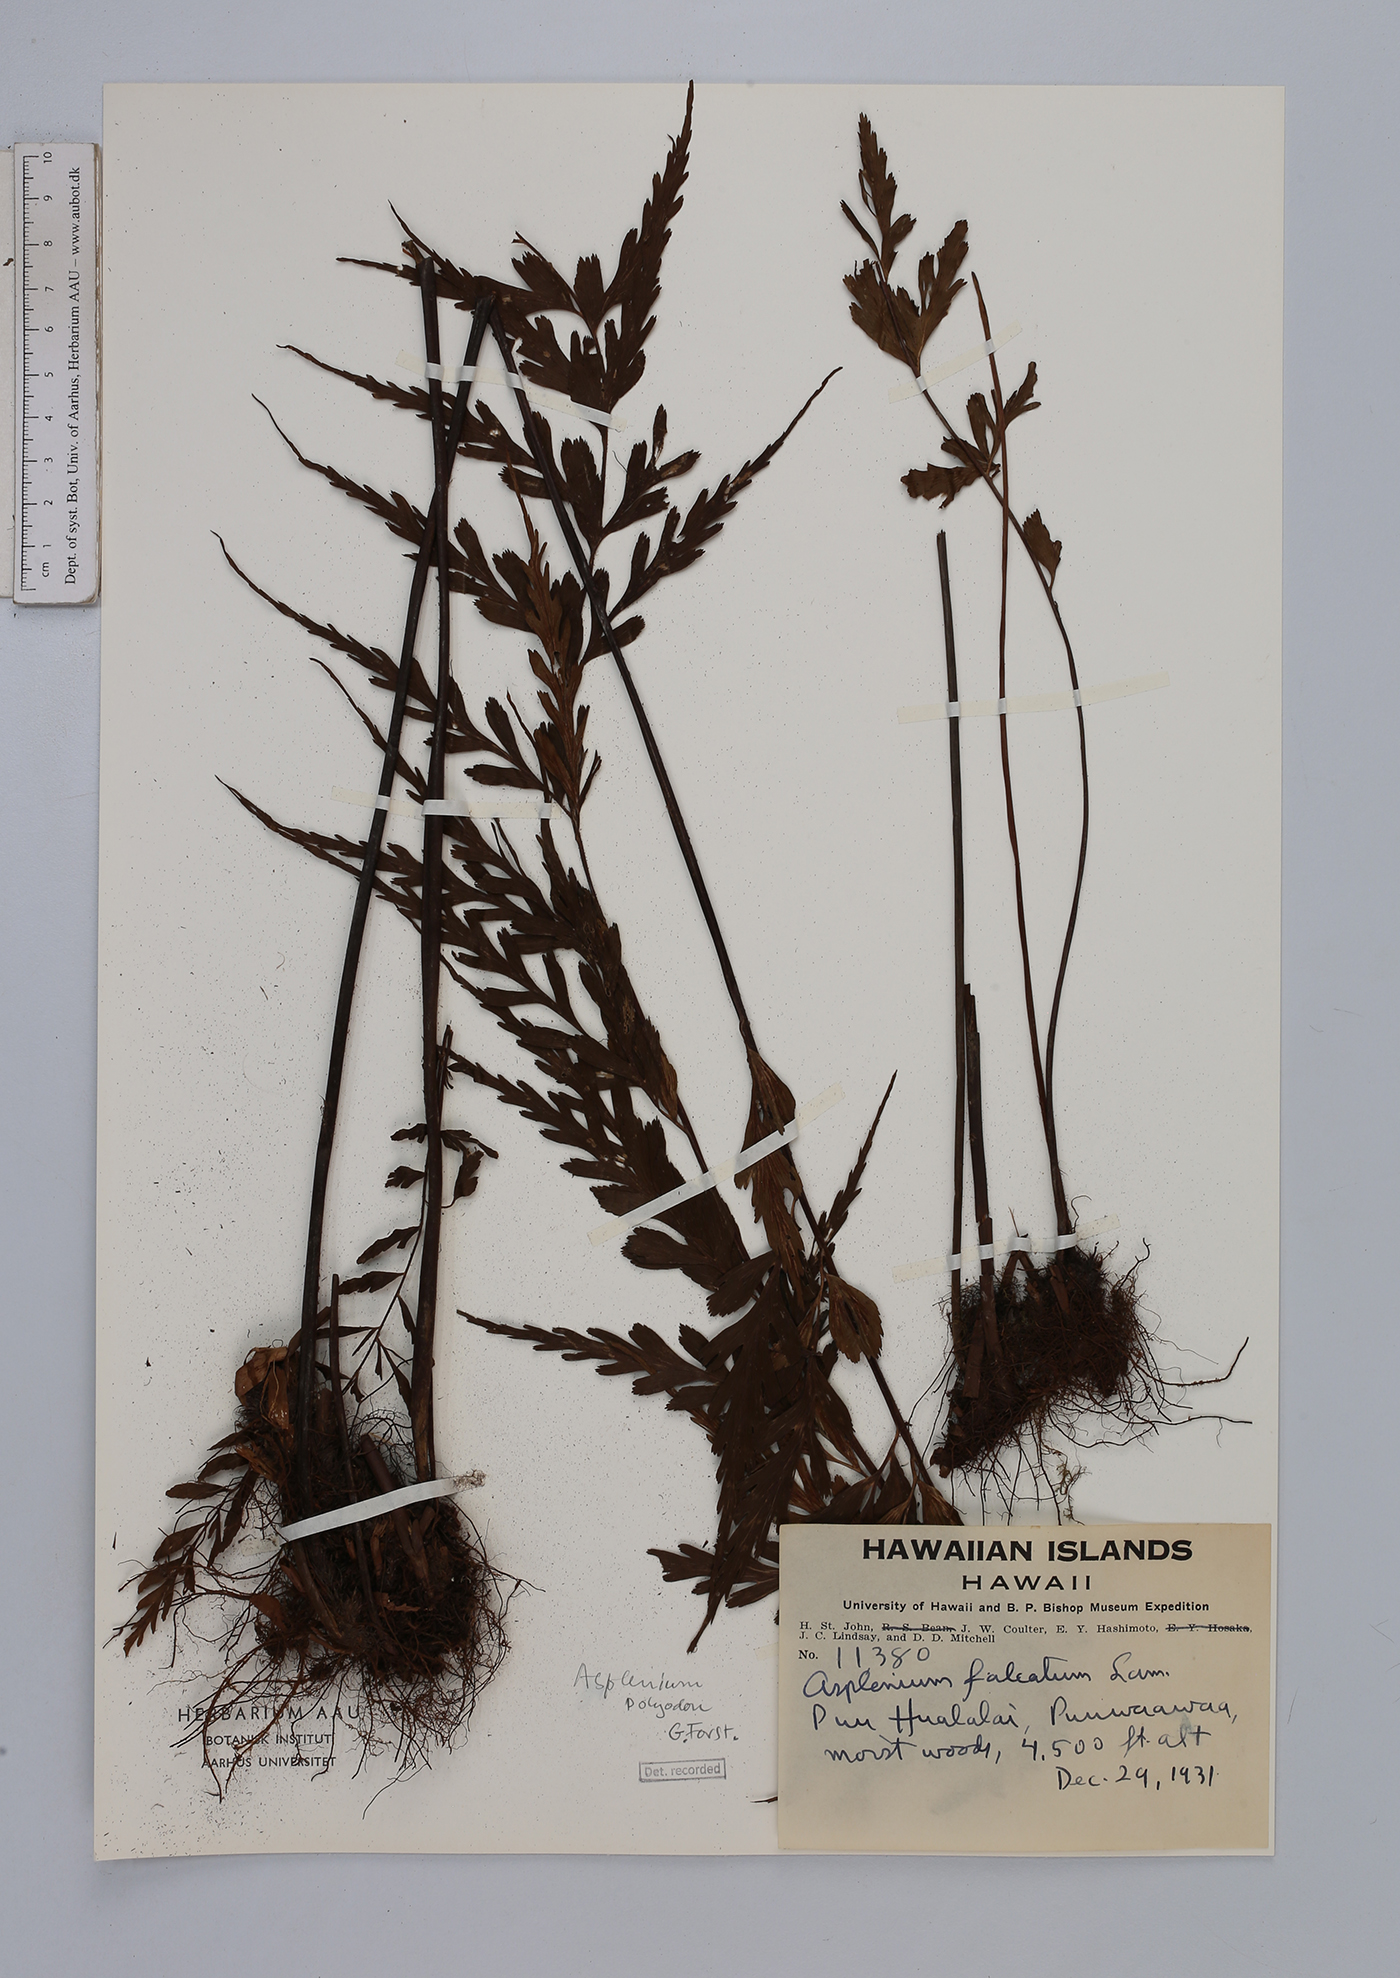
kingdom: Plantae
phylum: Tracheophyta
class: Polypodiopsida
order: Polypodiales
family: Aspleniaceae
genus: Asplenium
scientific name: Asplenium polyodon
